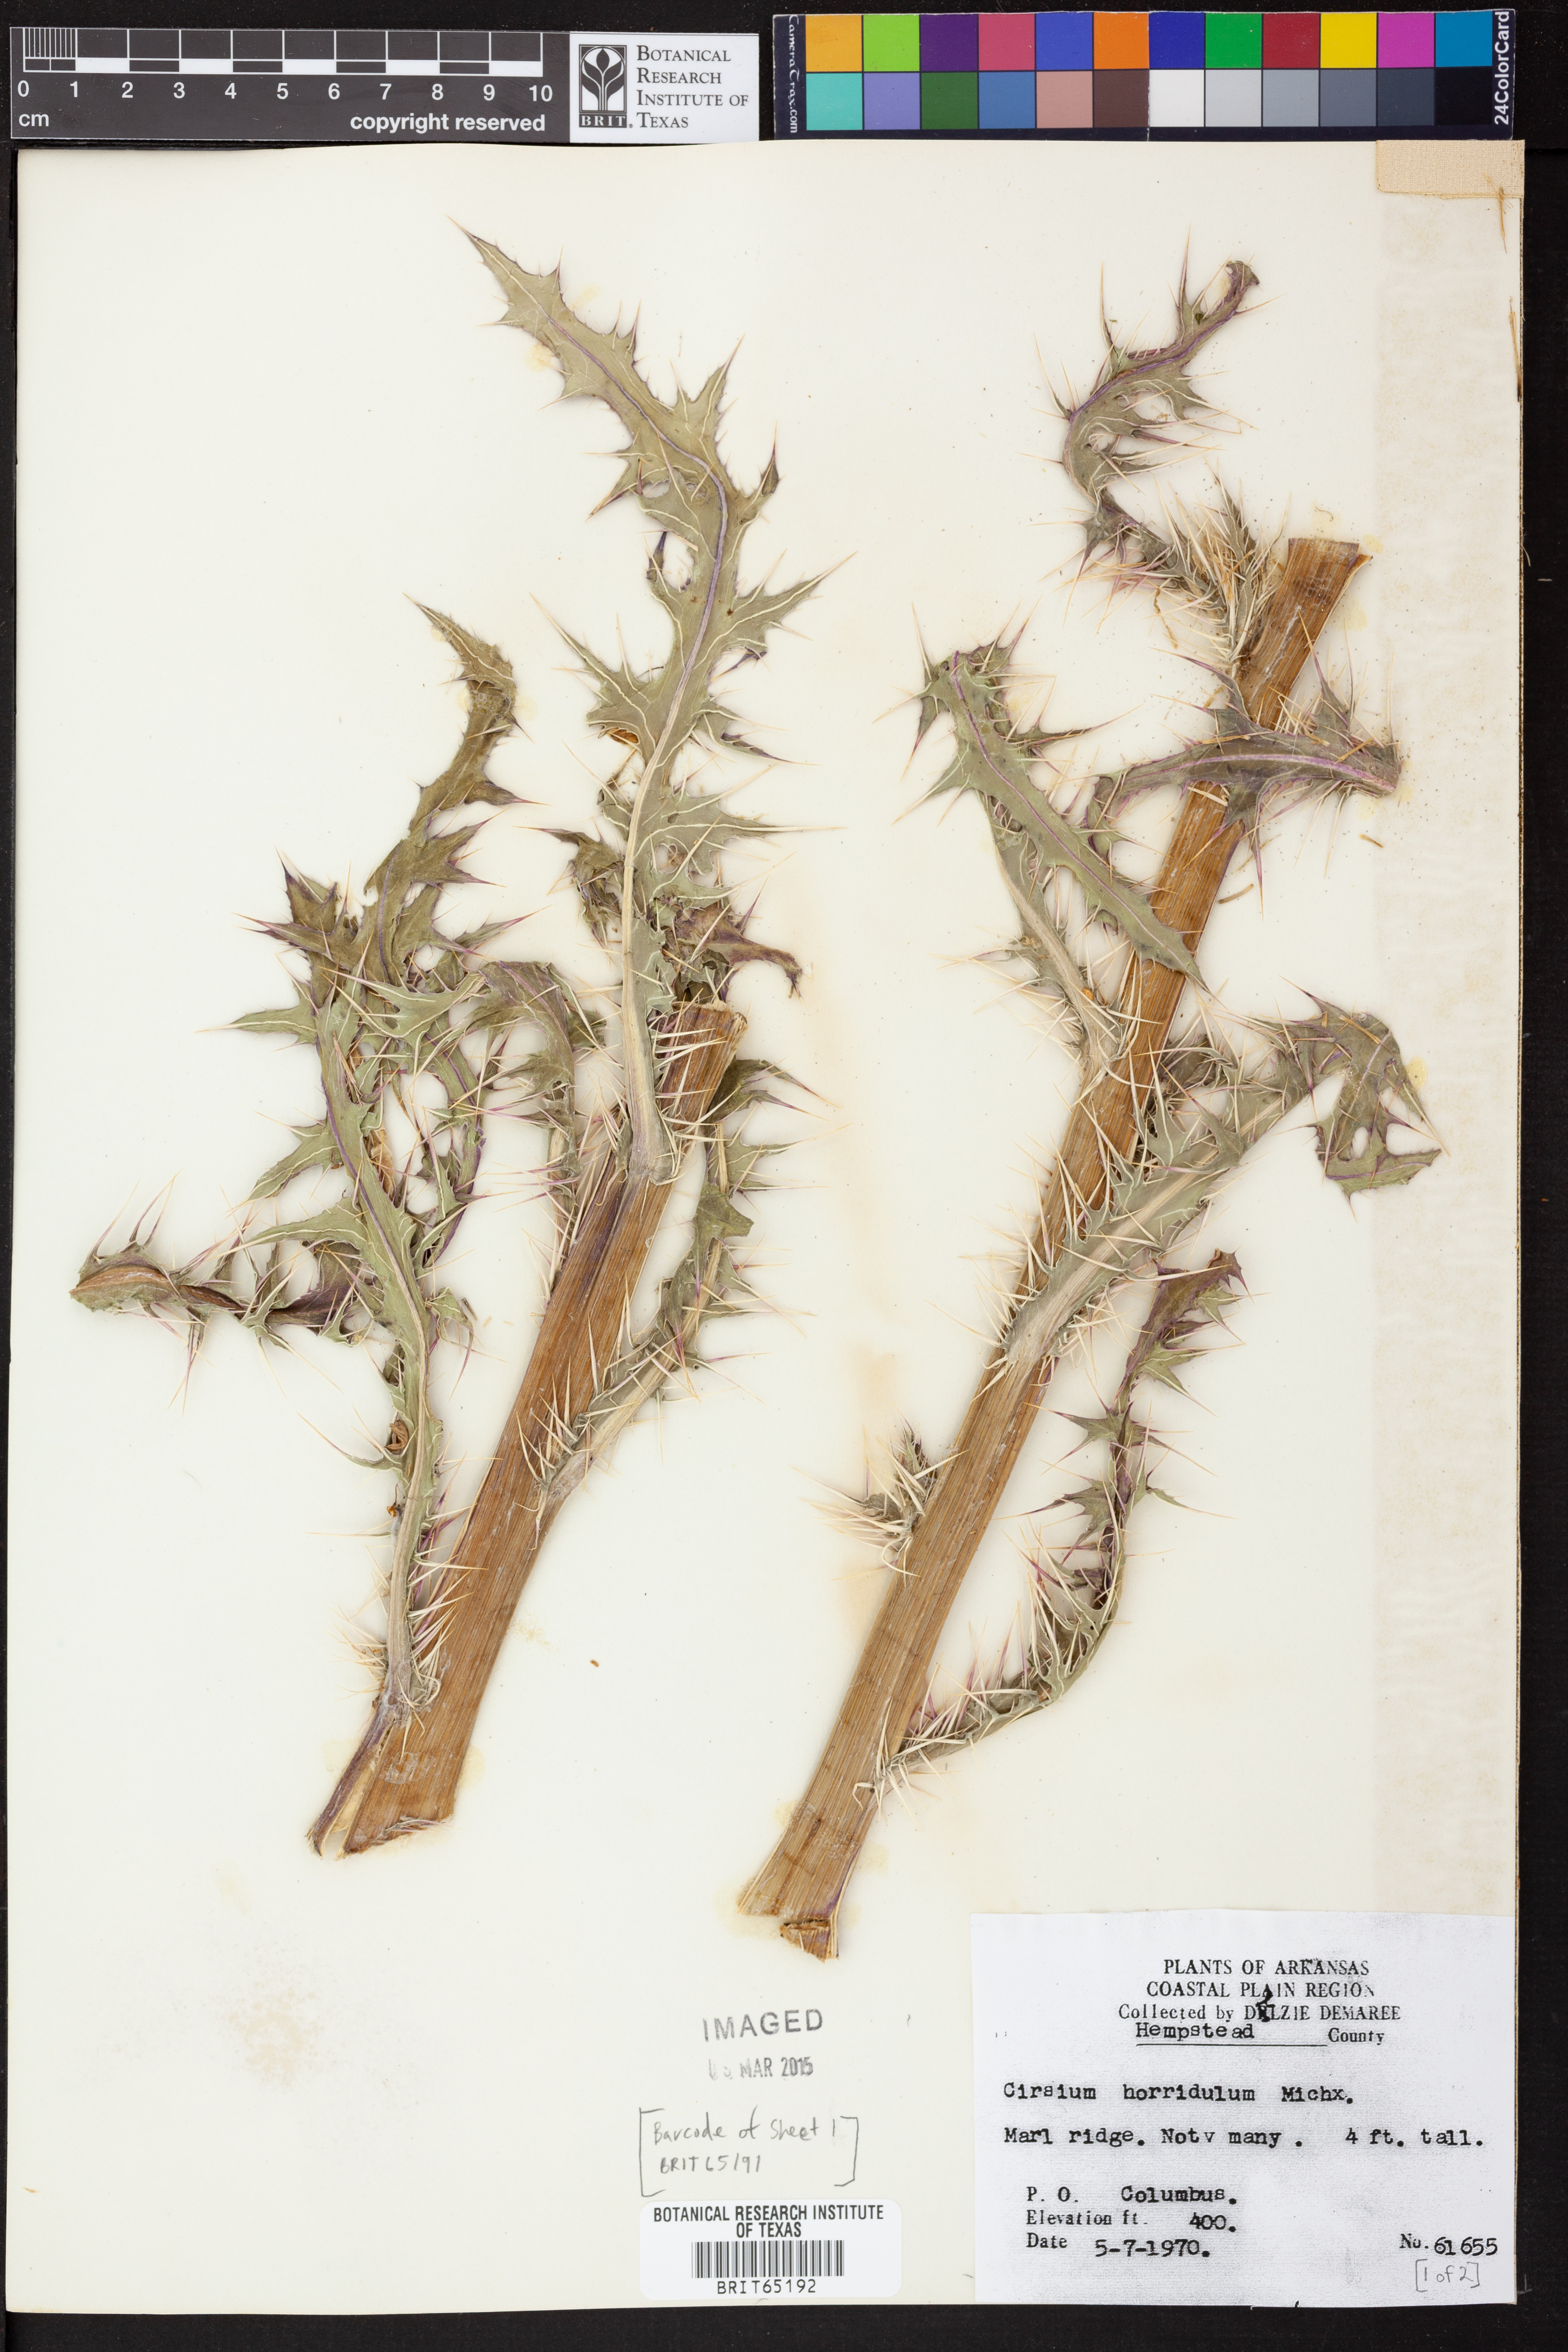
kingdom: Plantae
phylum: Tracheophyta
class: Magnoliopsida
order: Asterales
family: Asteraceae
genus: Cirsium
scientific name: Cirsium horridulum
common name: Bristly thistle
